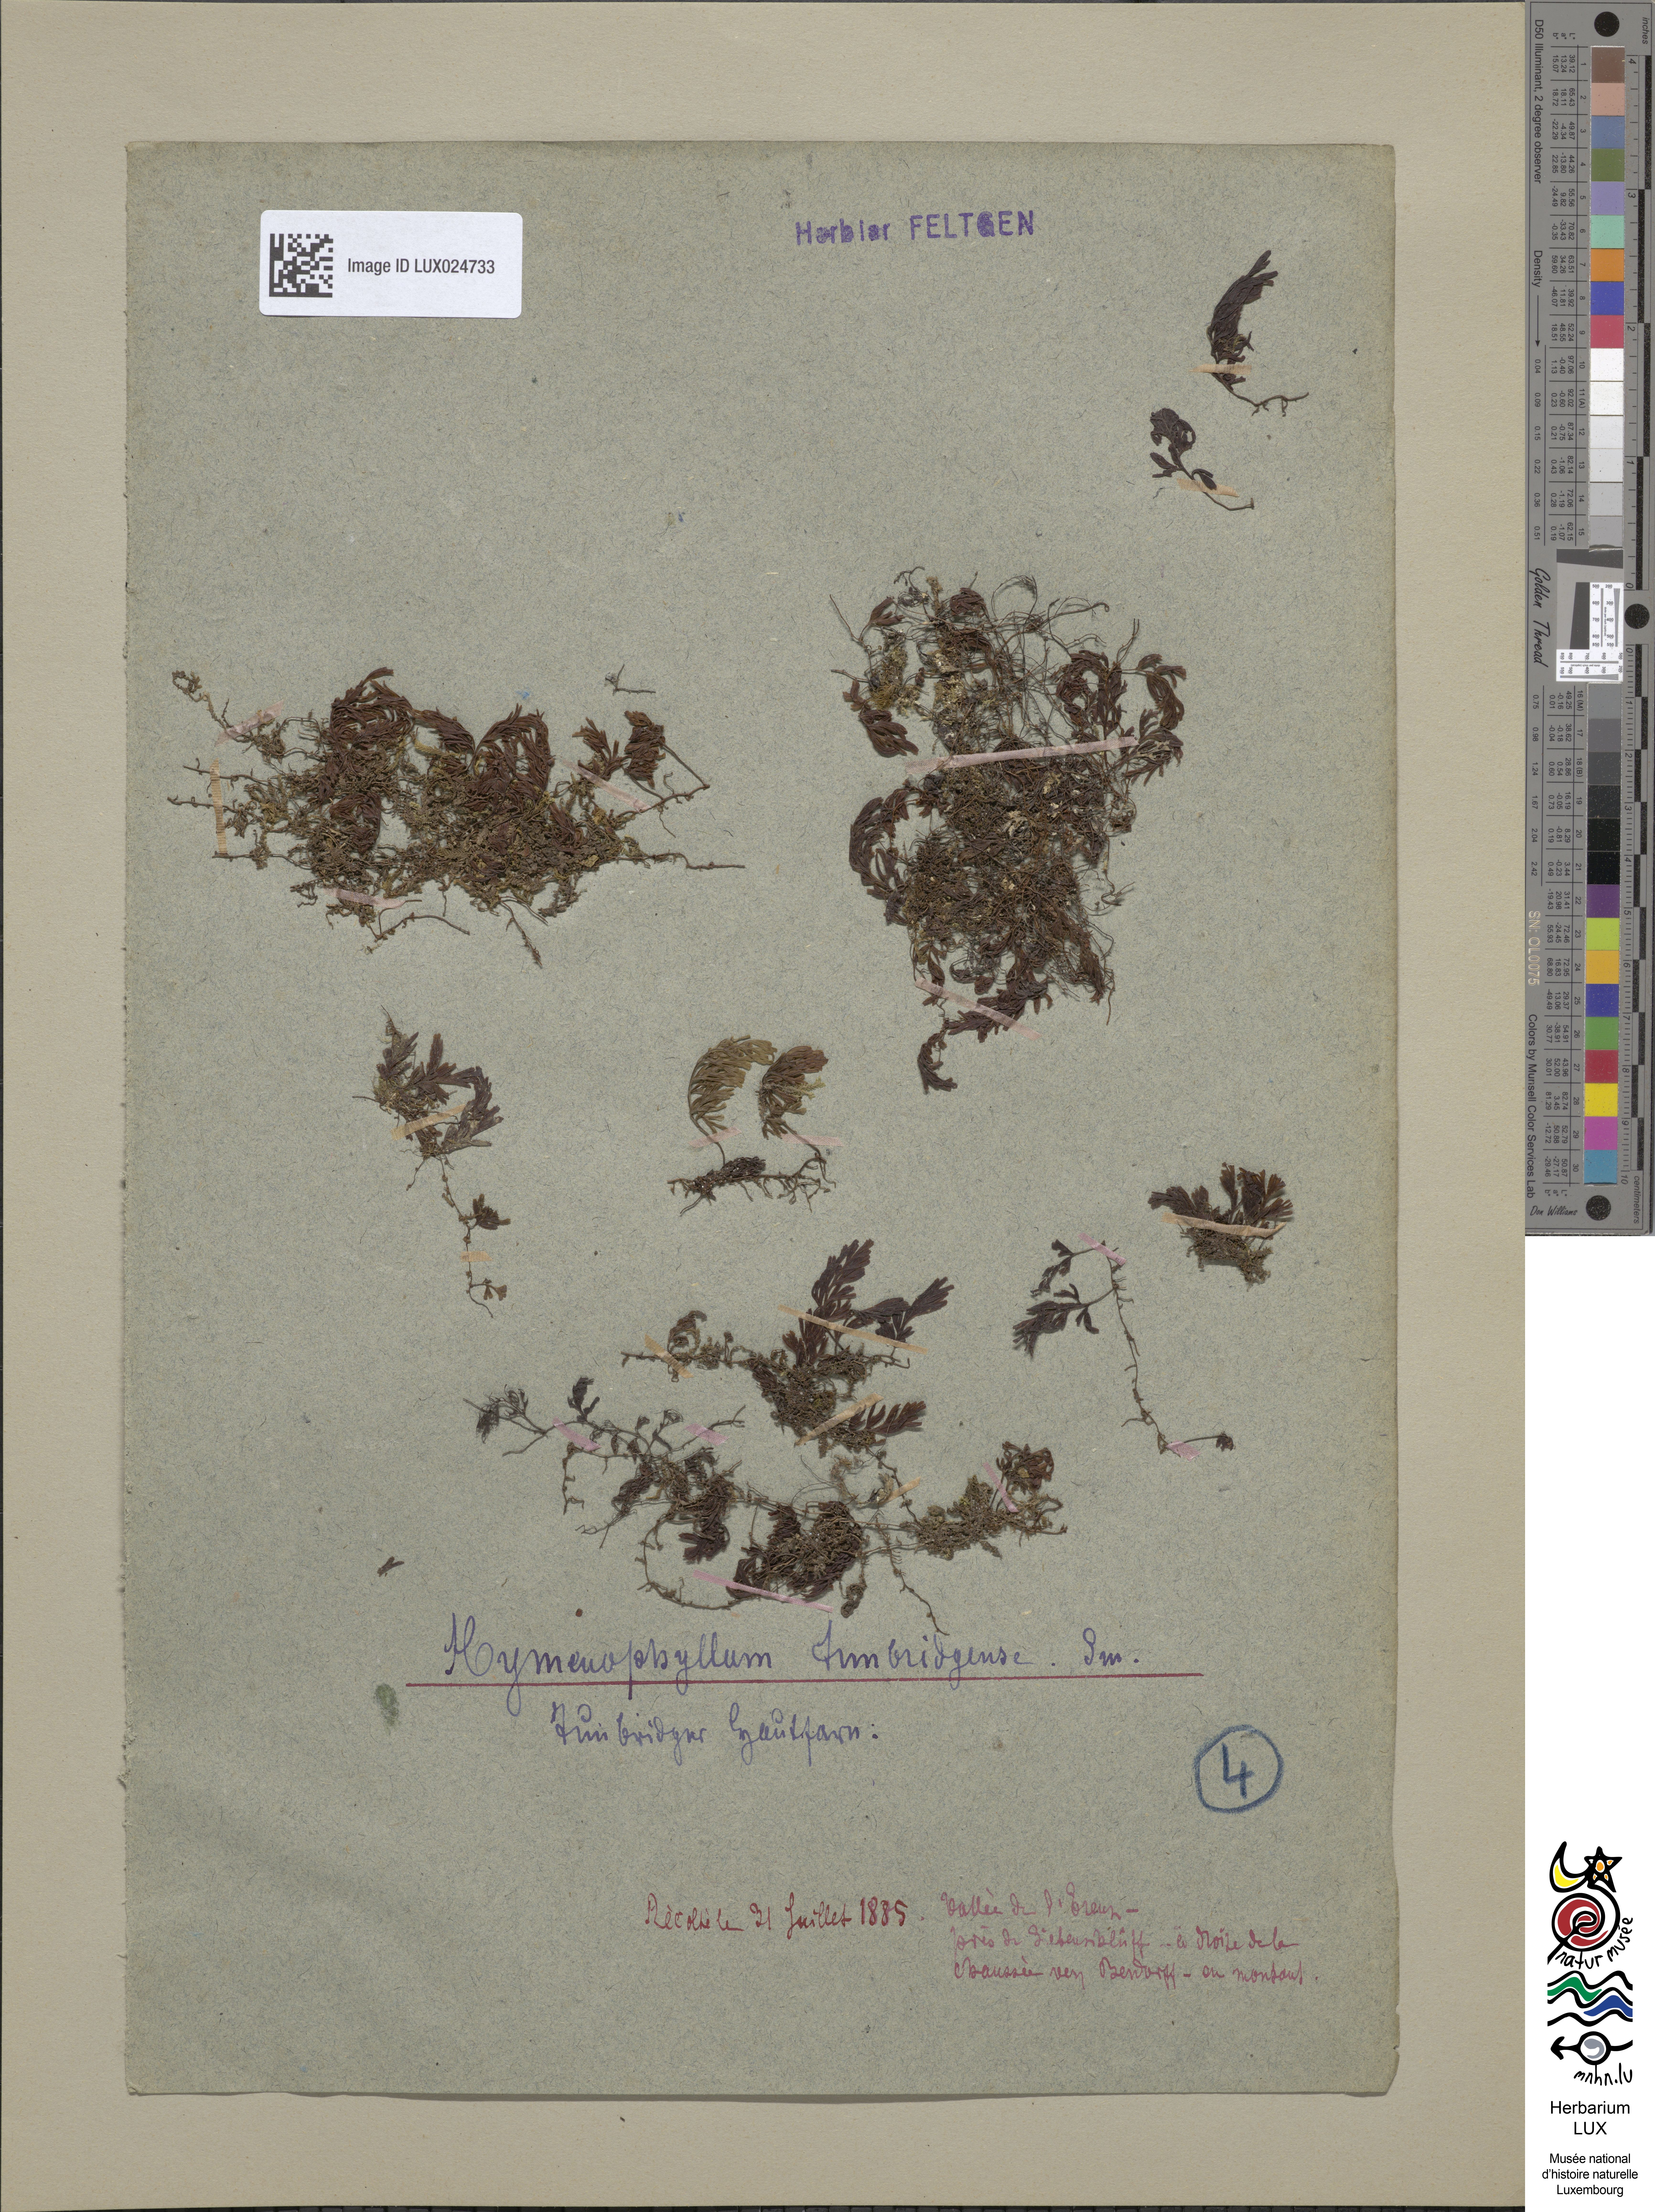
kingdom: Plantae
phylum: Tracheophyta
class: Polypodiopsida
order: Hymenophyllales
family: Hymenophyllaceae
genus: Hymenophyllum
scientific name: Hymenophyllum tunbrigense
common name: Tunbridge filmy fern
